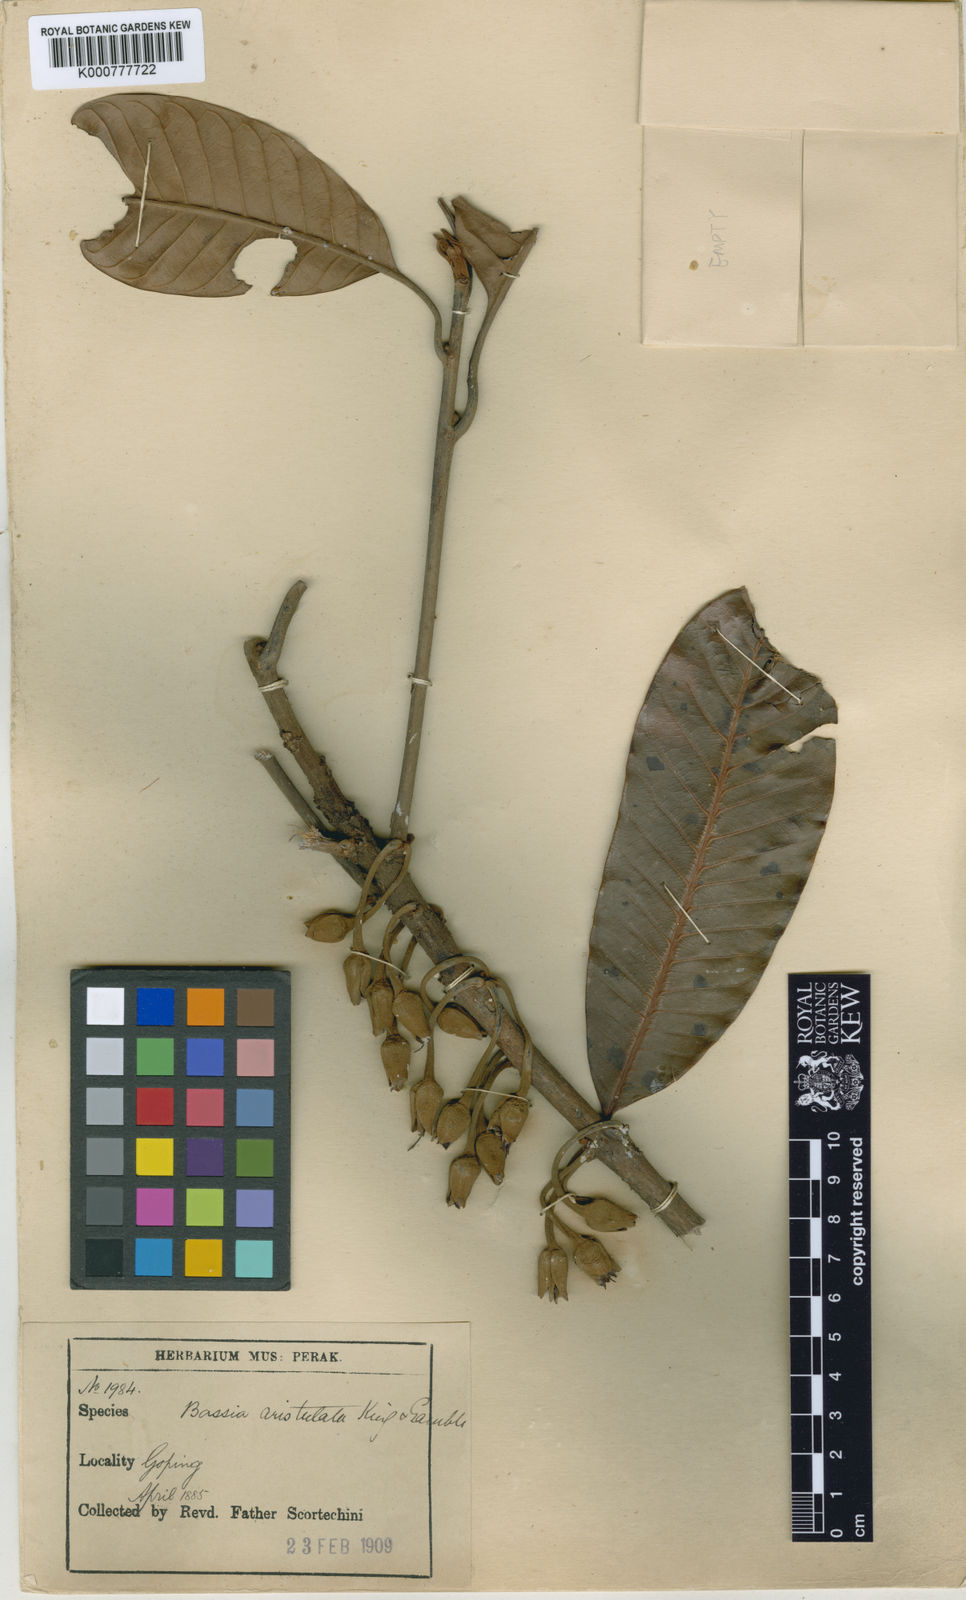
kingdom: Plantae
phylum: Tracheophyta
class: Magnoliopsida
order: Ericales
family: Sapotaceae
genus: Madhuca
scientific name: Madhuca aristulata
